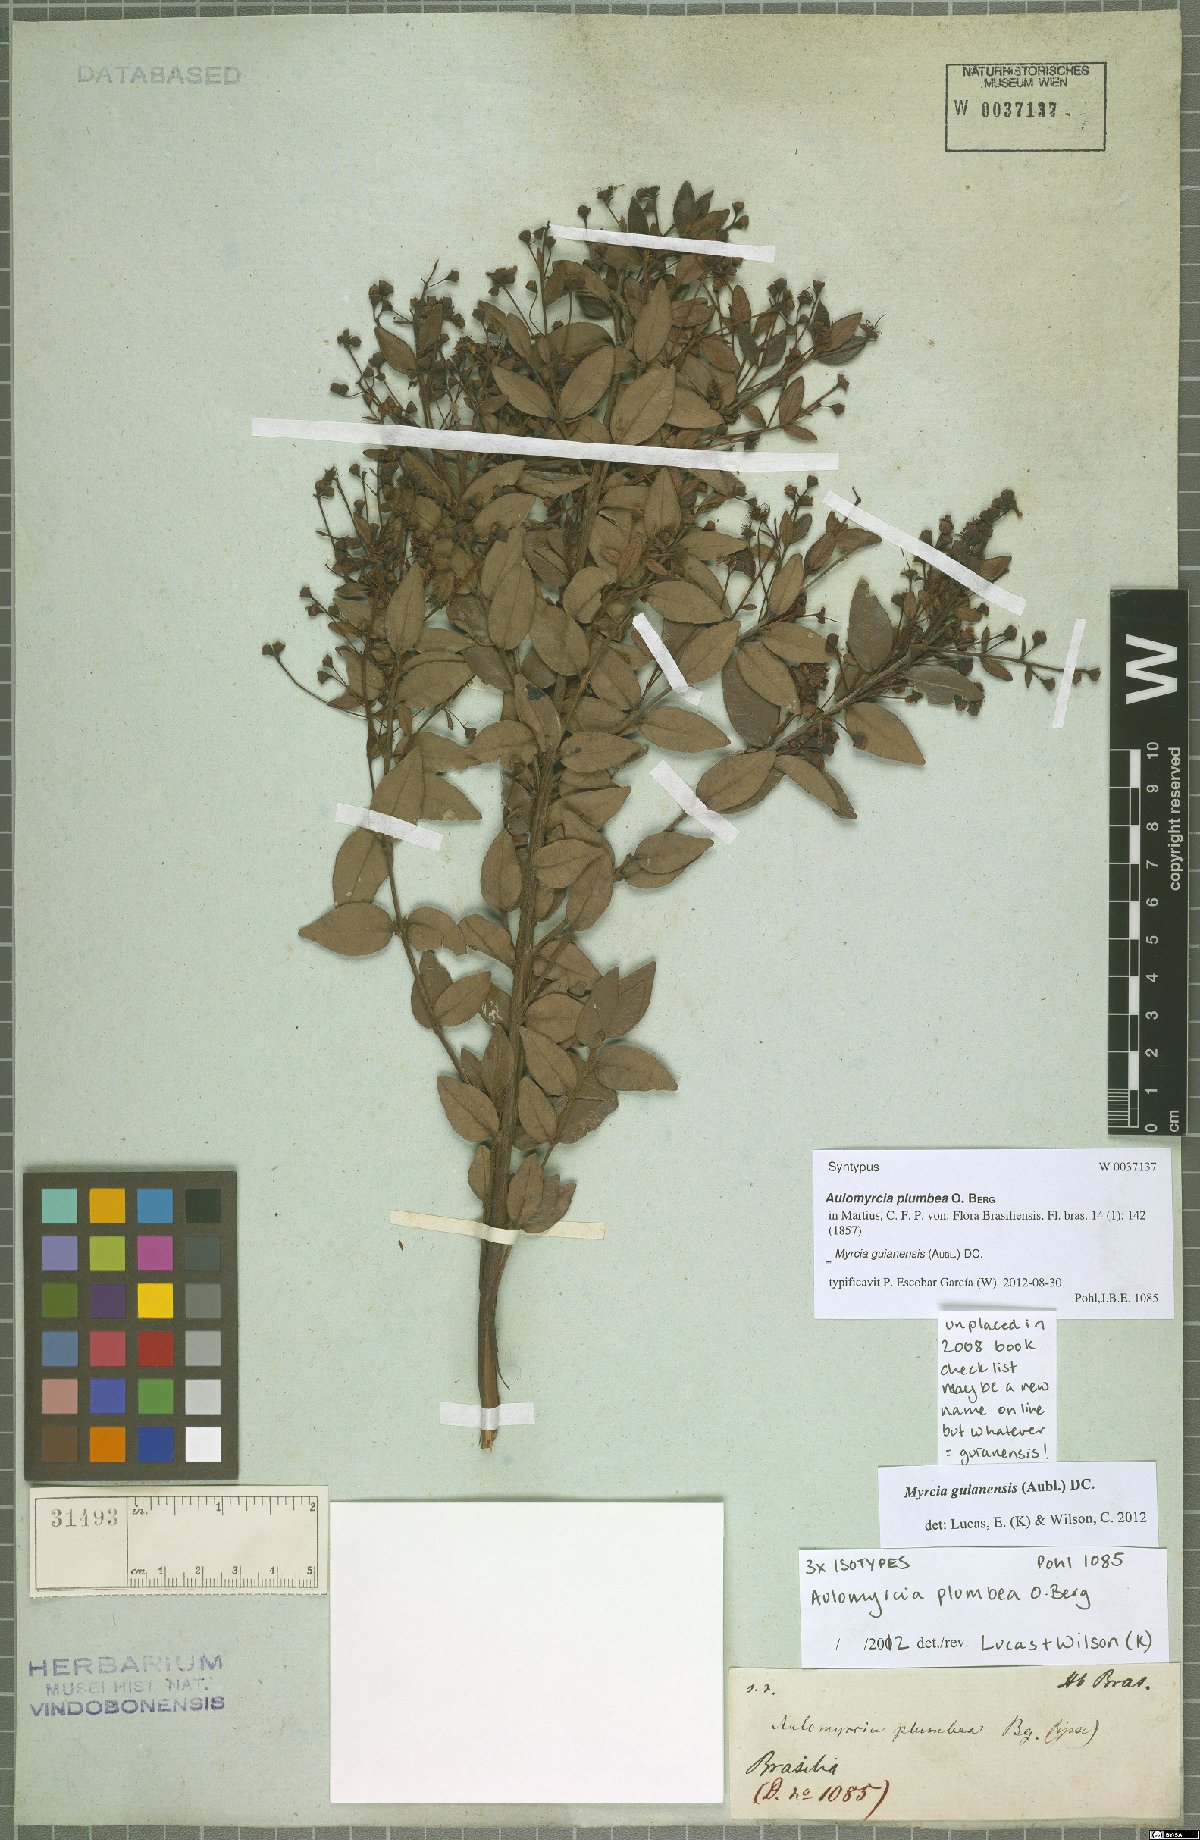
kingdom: Plantae
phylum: Tracheophyta
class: Magnoliopsida
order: Myrtales
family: Myrtaceae
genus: Myrcia
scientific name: Myrcia guianensis
